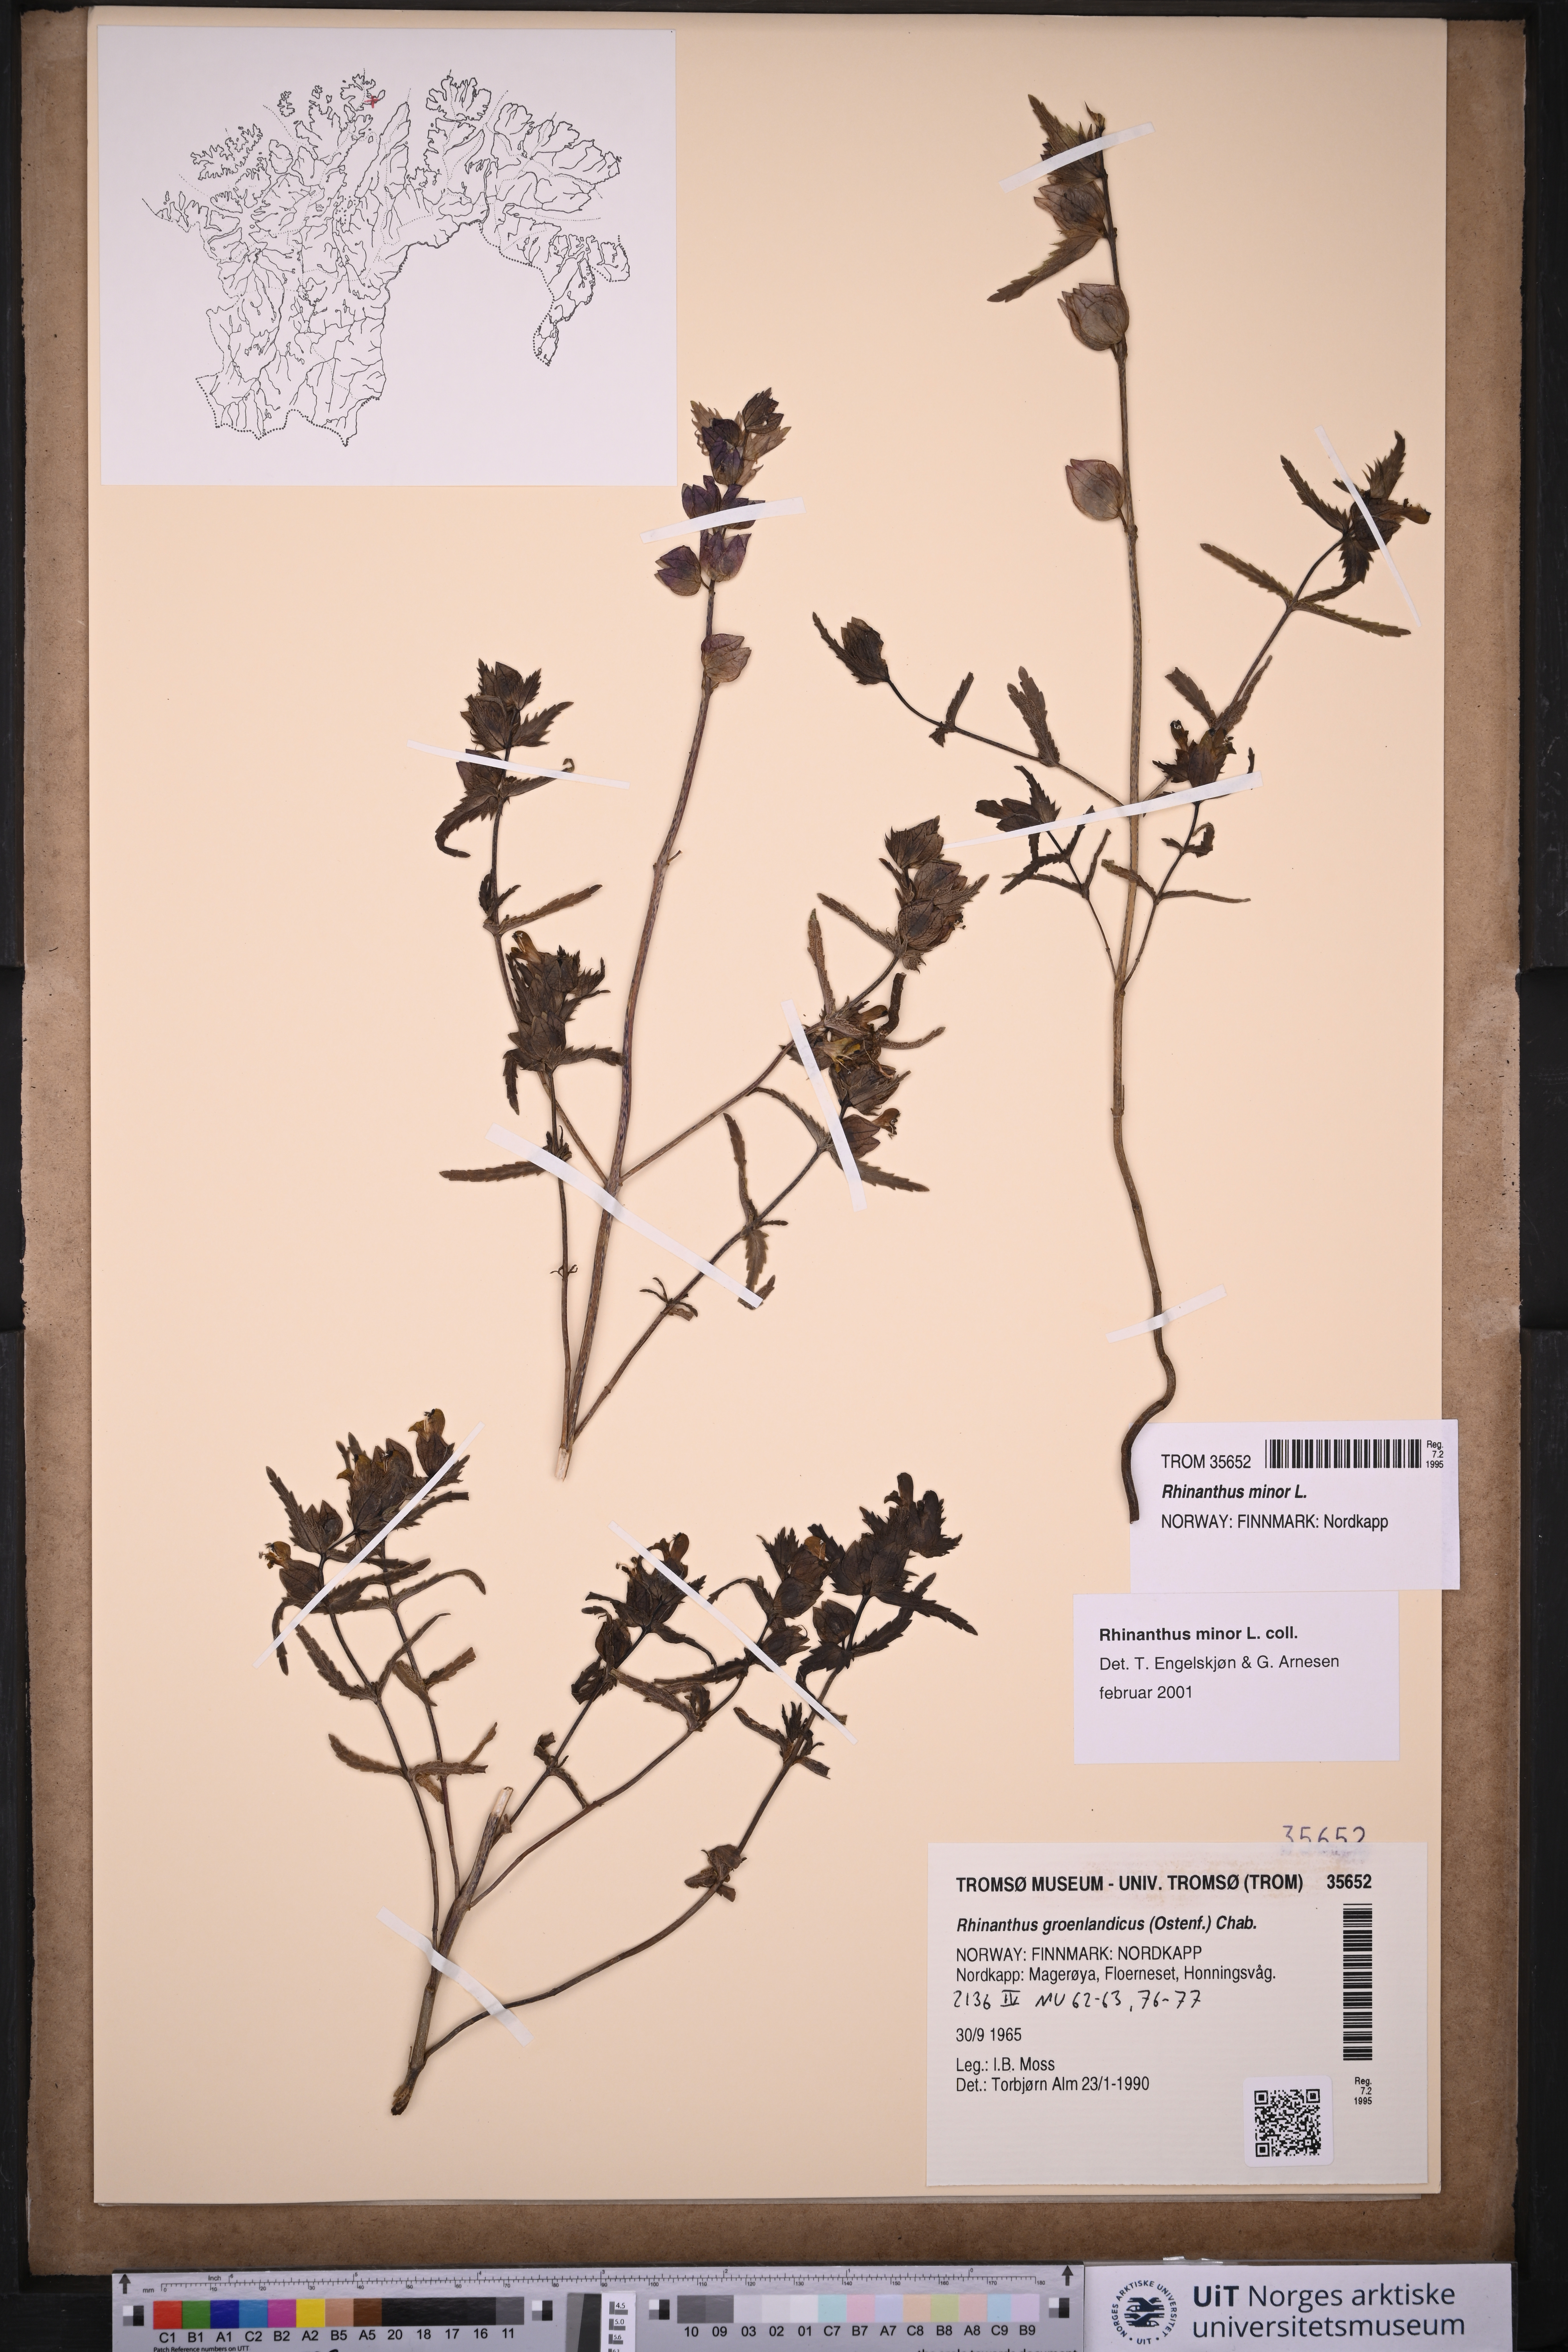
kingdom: Plantae
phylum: Tracheophyta
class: Magnoliopsida
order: Lamiales
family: Orobanchaceae
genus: Rhinanthus
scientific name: Rhinanthus minor
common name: Yellow-rattle
